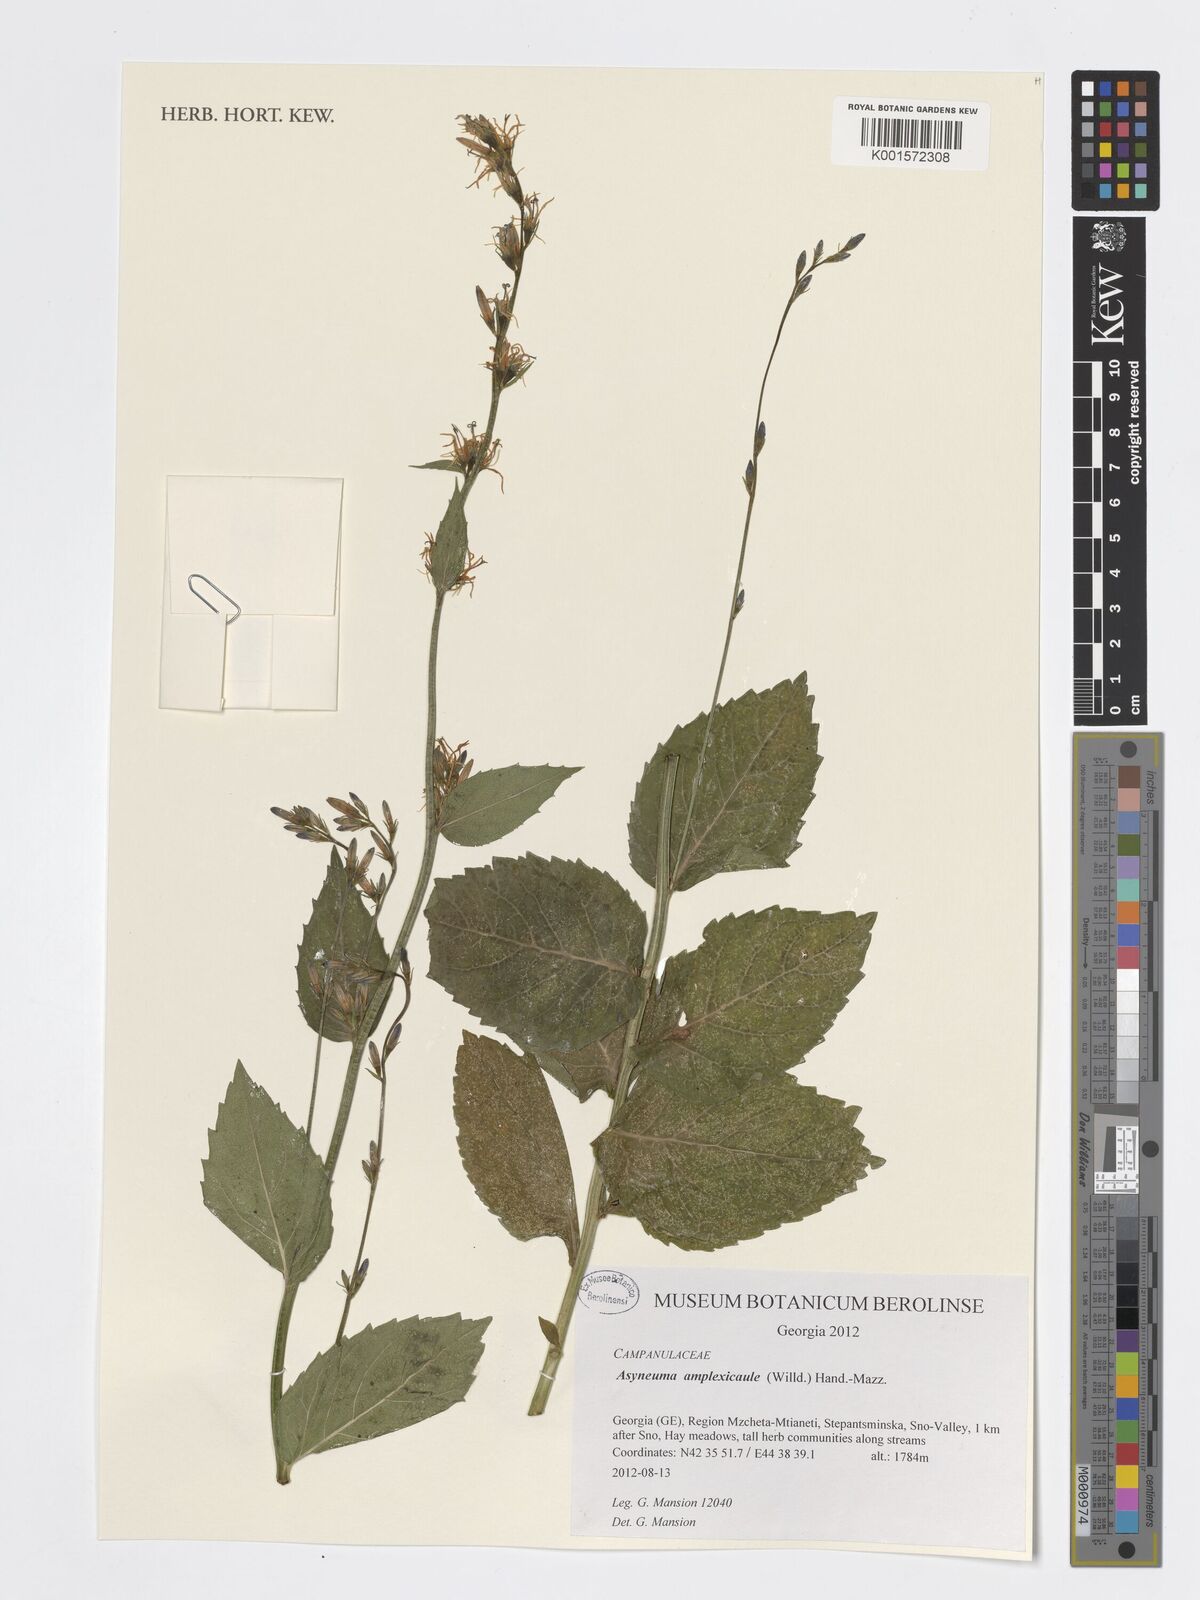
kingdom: Plantae
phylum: Tracheophyta
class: Magnoliopsida
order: Asterales
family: Campanulaceae
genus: Asyneuma
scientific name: Asyneuma amplexicaule
